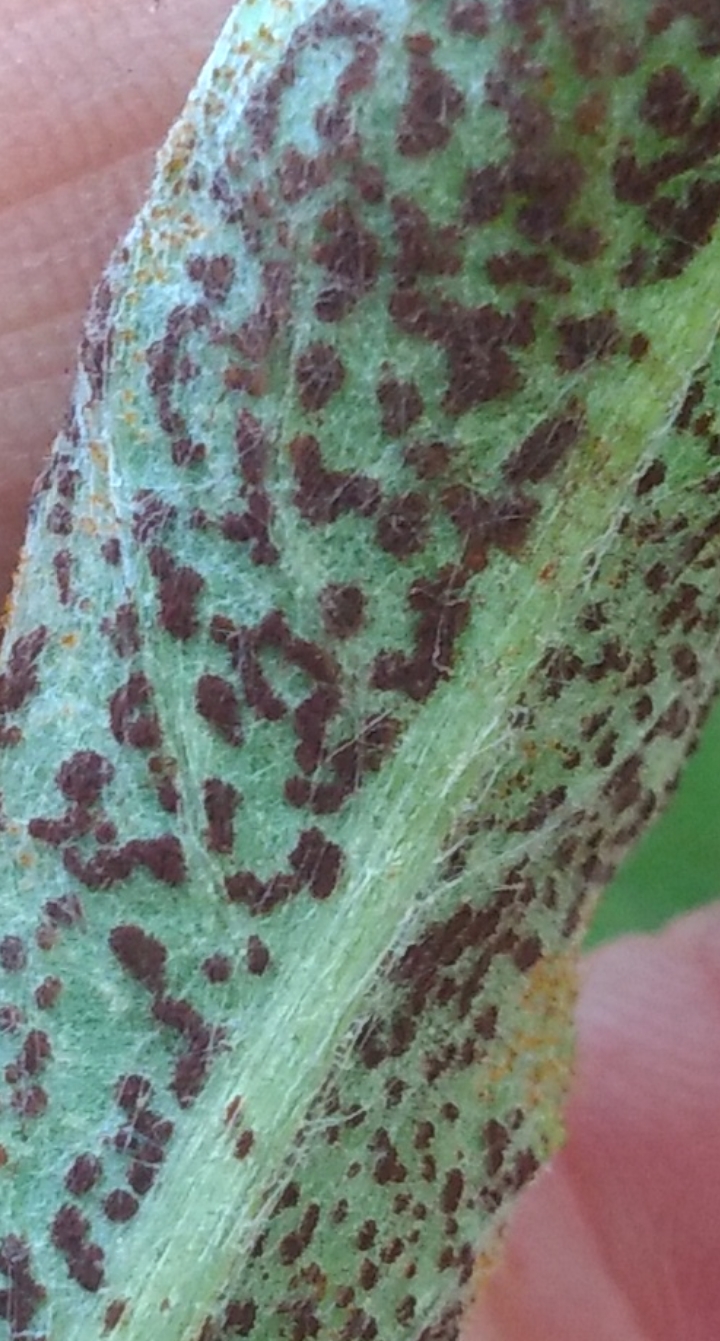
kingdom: Fungi
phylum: Basidiomycota
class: Pucciniomycetes
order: Pucciniales
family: Pucciniaceae
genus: Puccinia
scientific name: Puccinia suaveolens
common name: tidsel-tvecellerust
